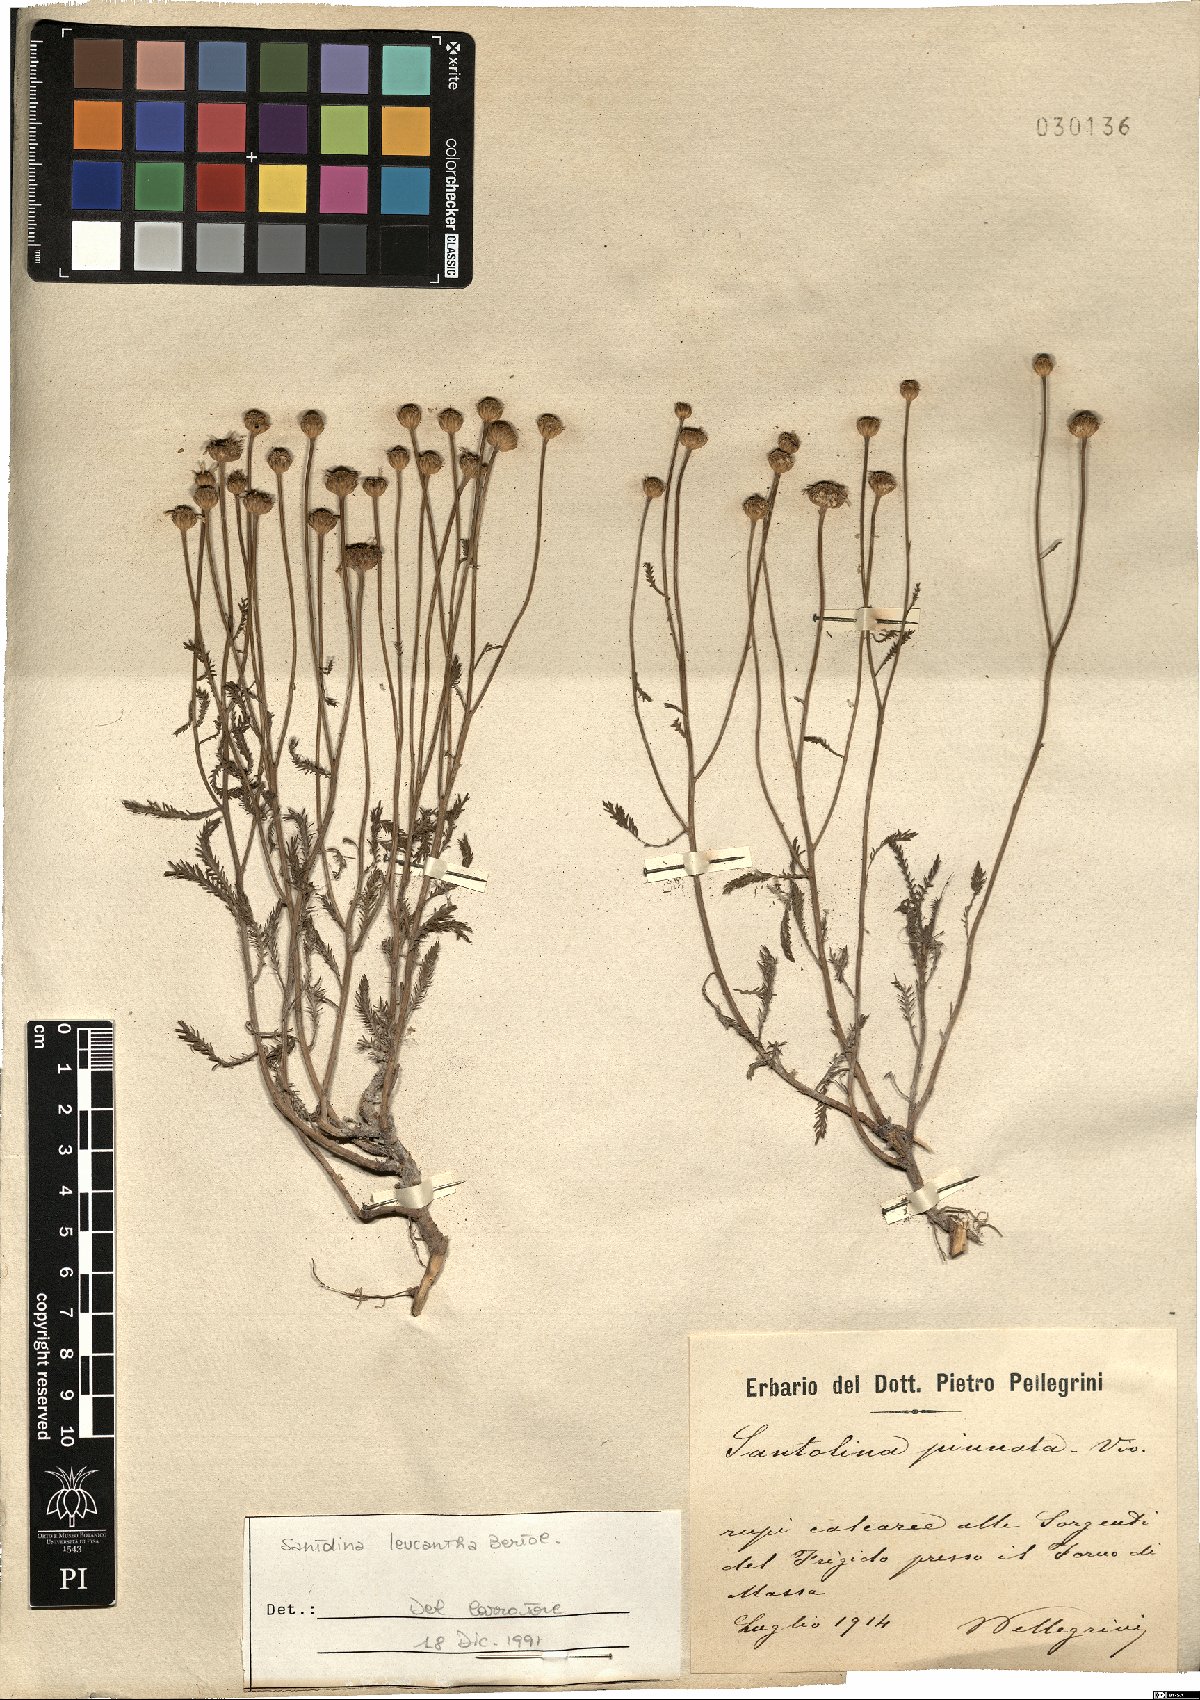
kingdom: Plantae
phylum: Tracheophyta
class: Magnoliopsida
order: Asterales
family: Asteraceae
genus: Santolina
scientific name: Santolina pinnata
